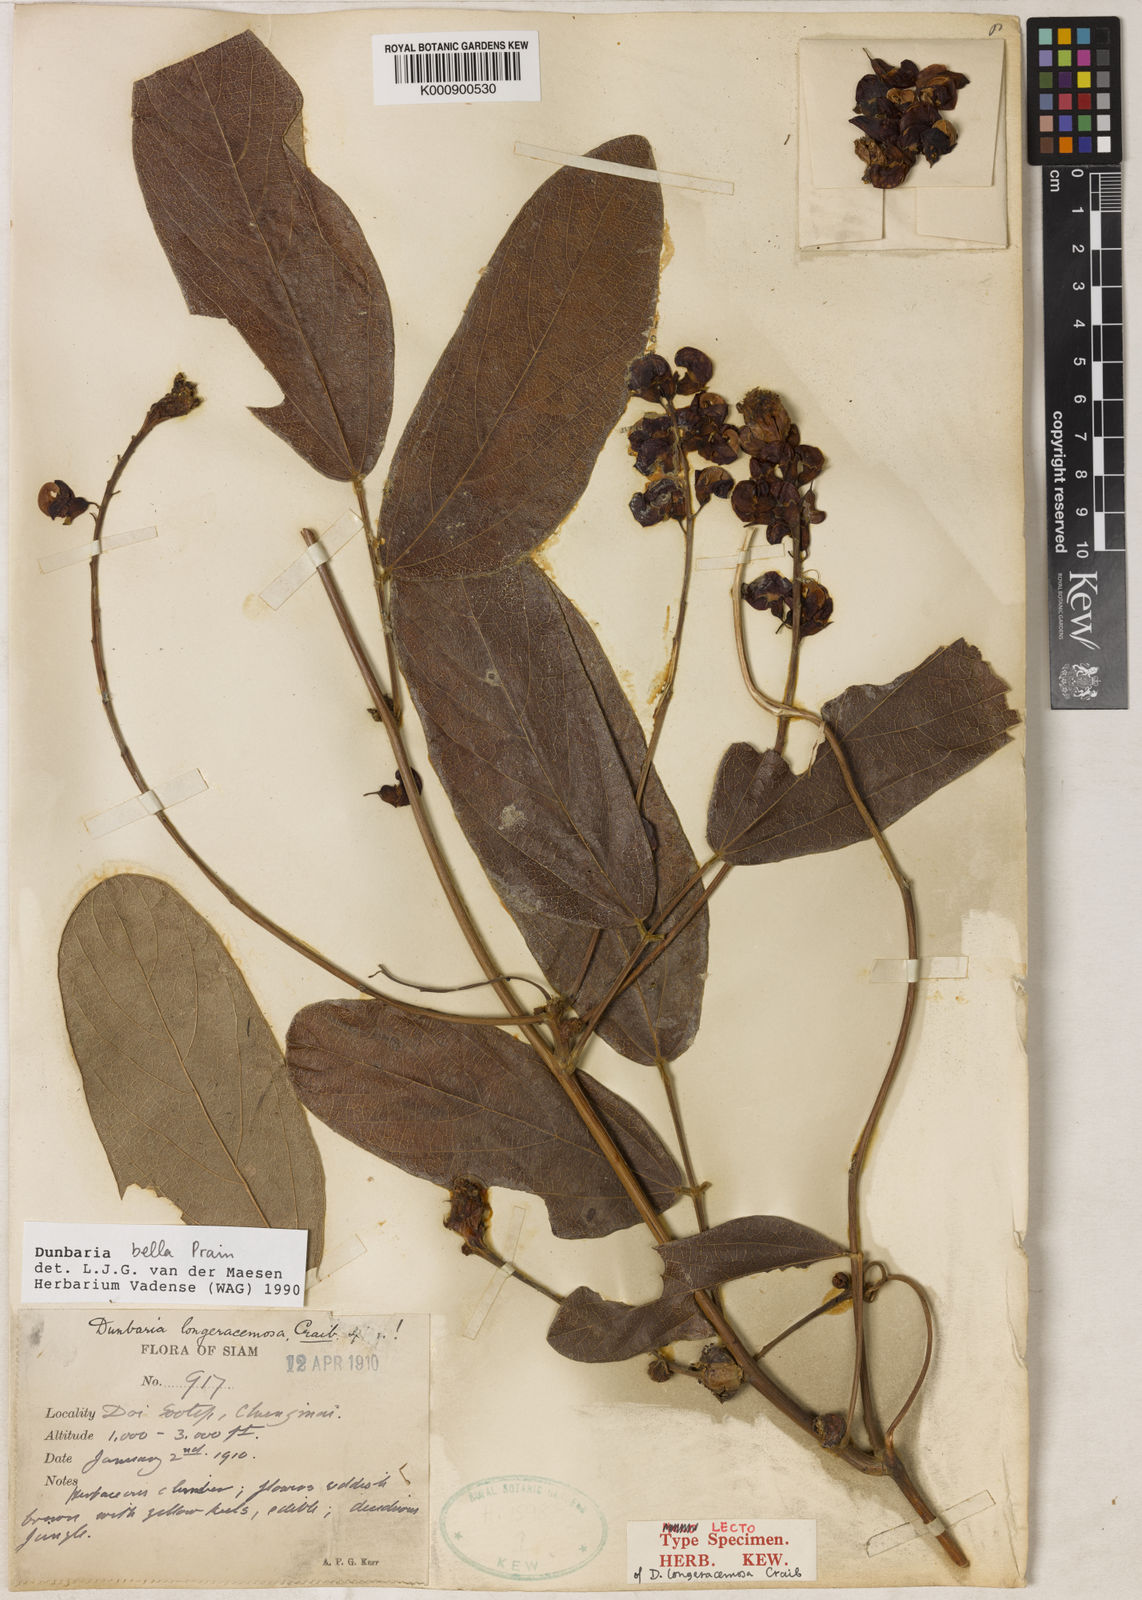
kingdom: Plantae
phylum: Tracheophyta
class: Magnoliopsida
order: Fabales
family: Fabaceae
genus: Dunbaria
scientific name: Dunbaria bella
